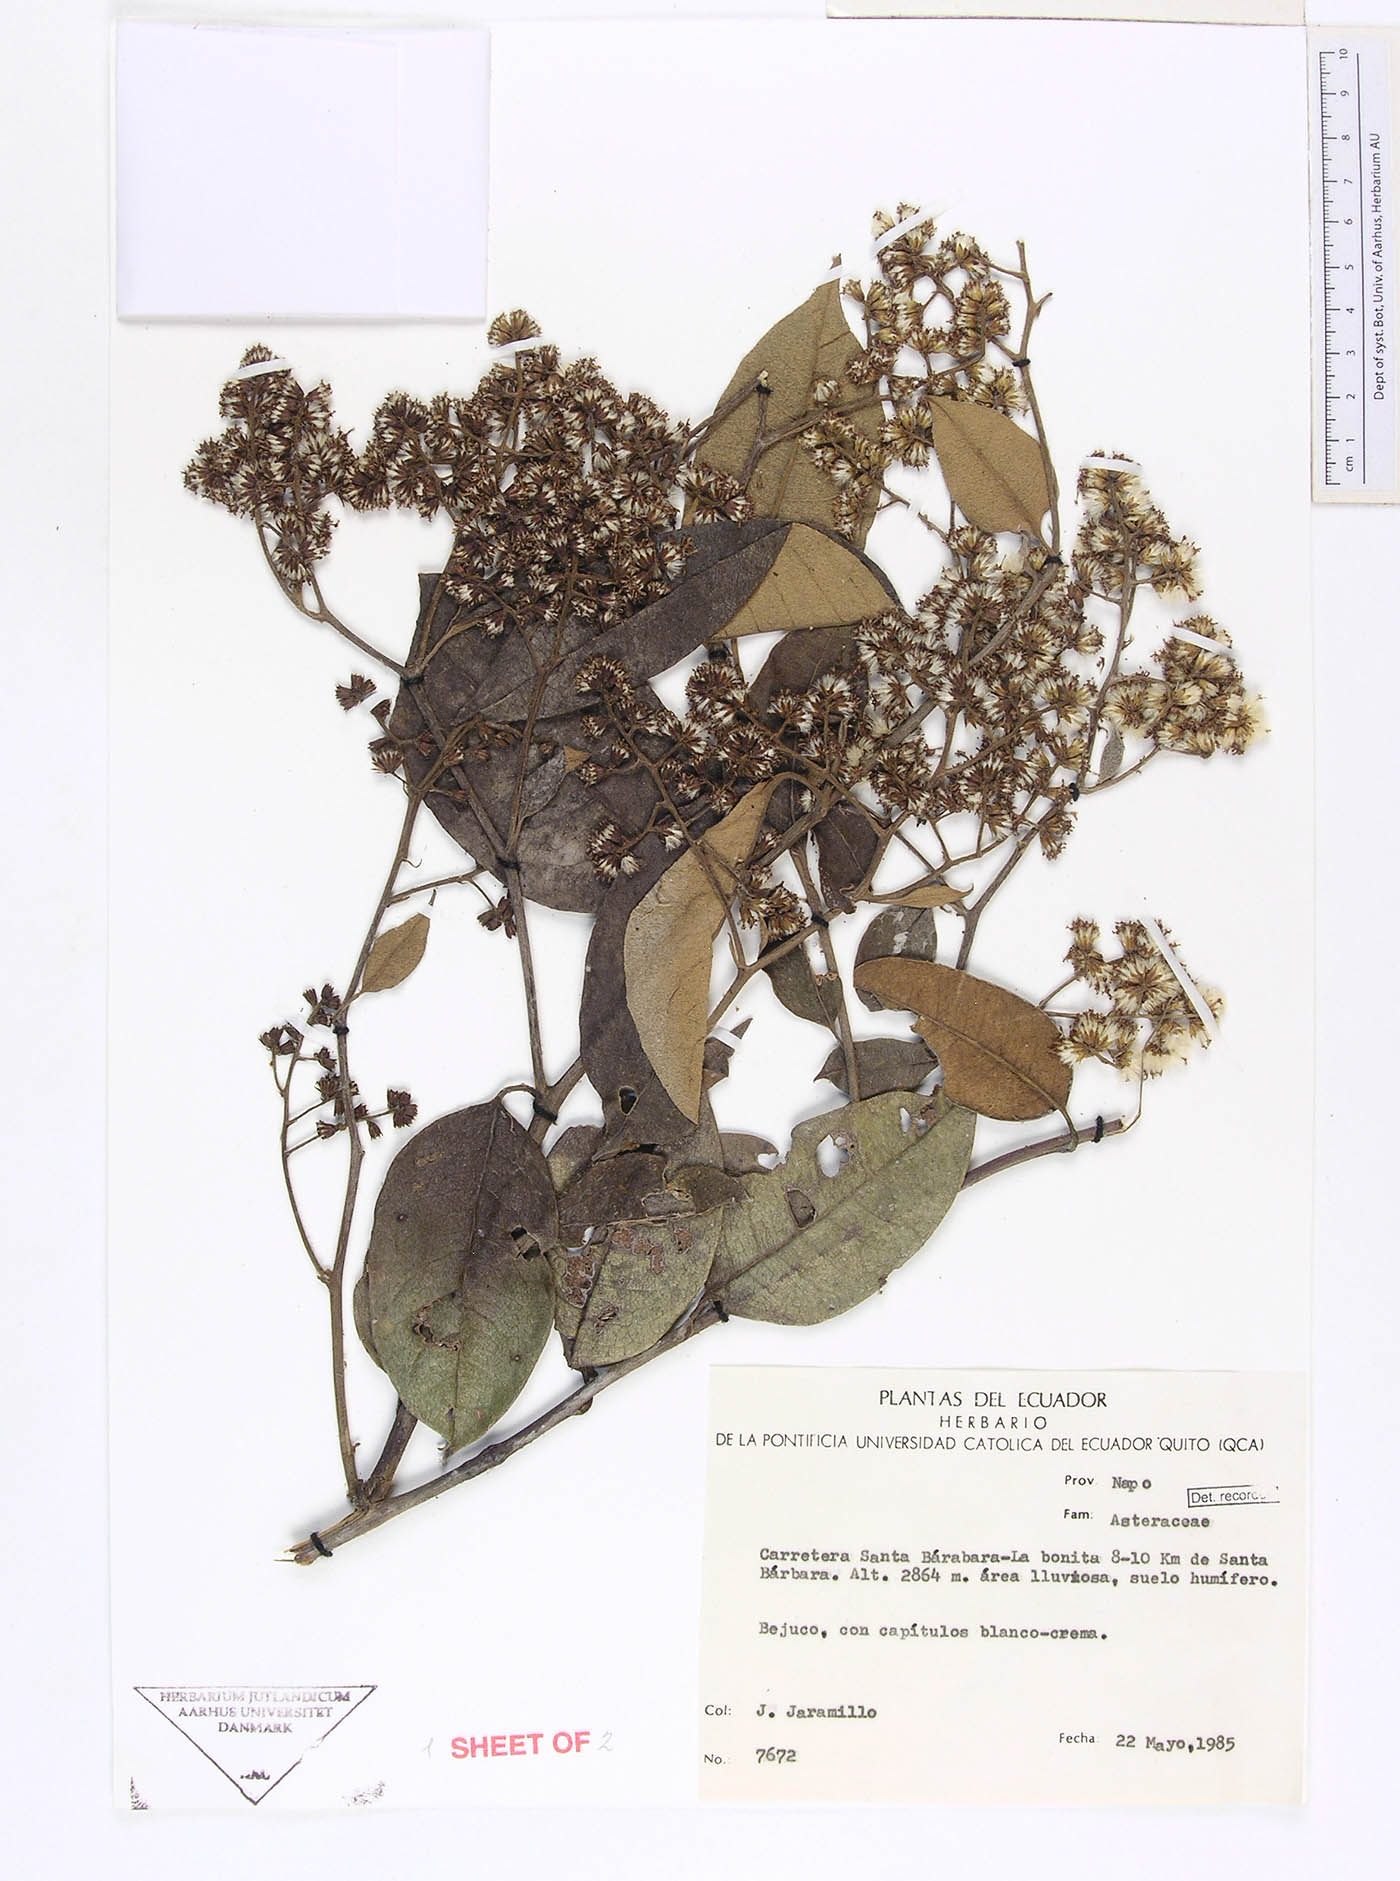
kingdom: Plantae
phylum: Tracheophyta
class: Magnoliopsida
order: Asterales
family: Asteraceae
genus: Pentacalia
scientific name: Pentacalia oronocensis
